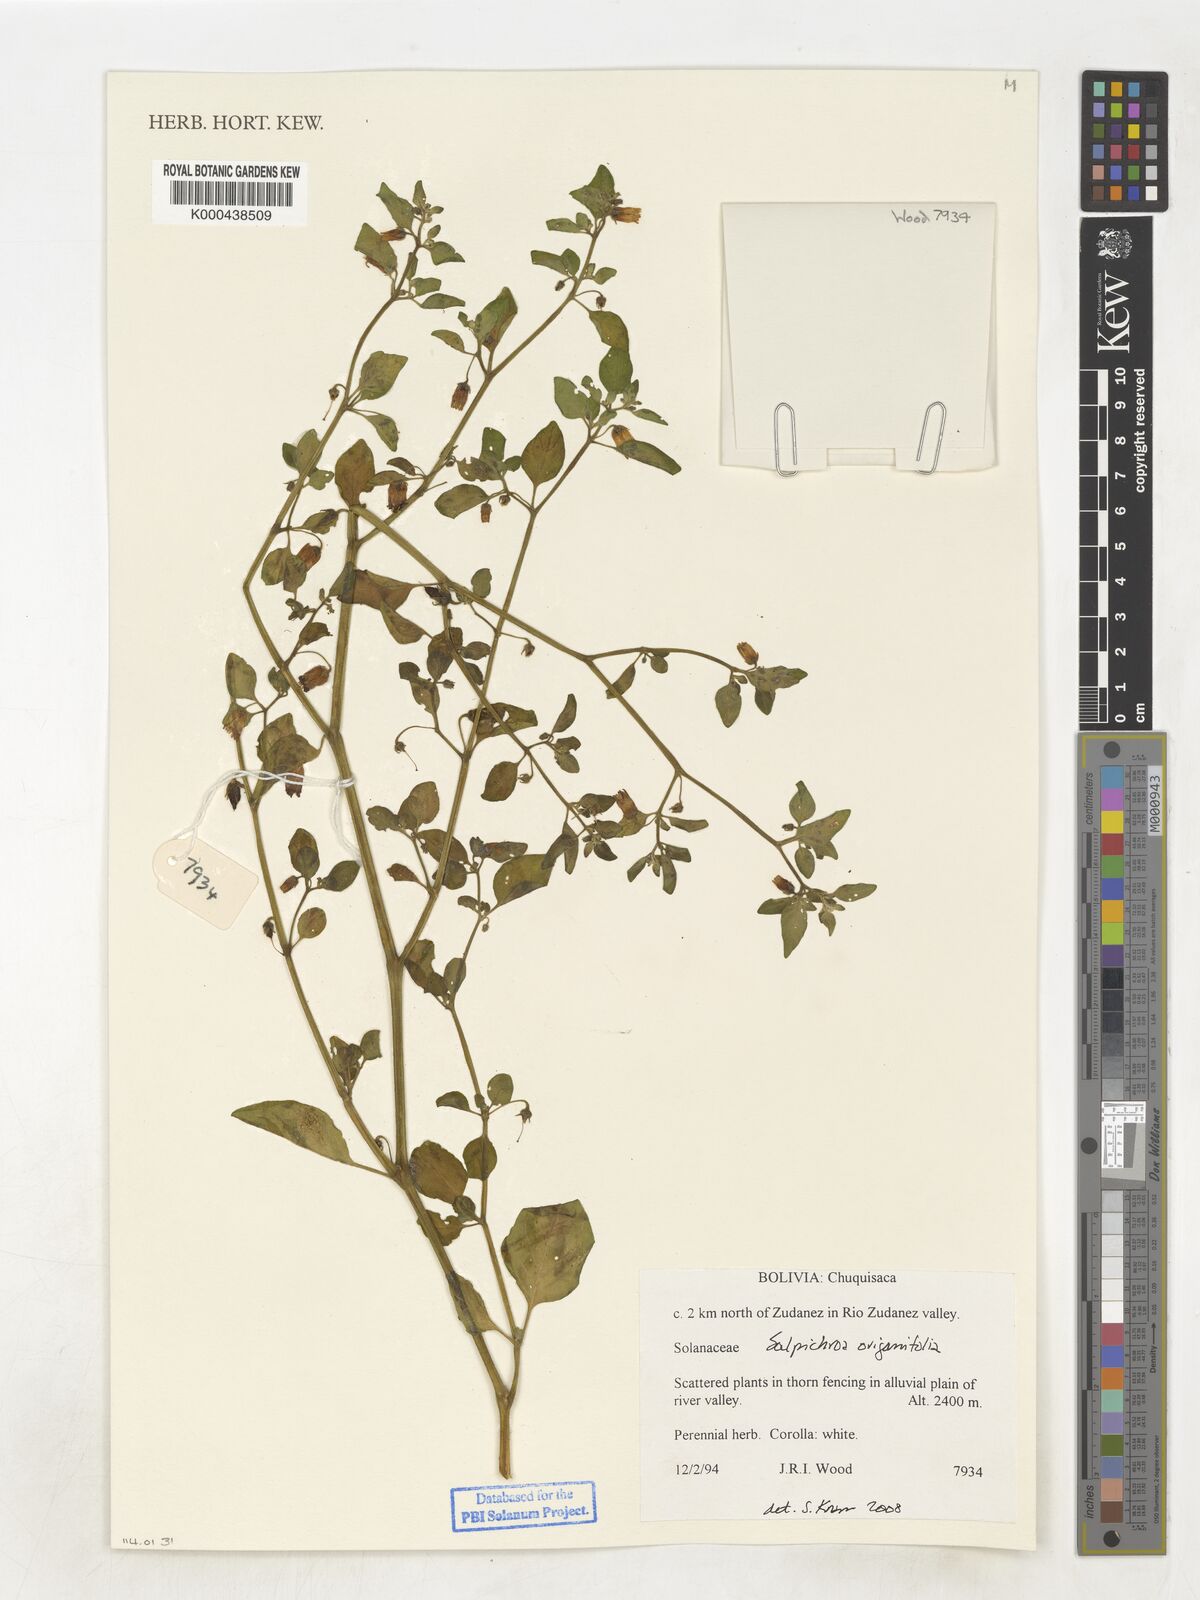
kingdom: Plantae
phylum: Tracheophyta
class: Magnoliopsida
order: Solanales
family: Solanaceae
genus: Salpichroa
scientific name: Salpichroa origanifolia
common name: Lily-of-the-valley-vine
